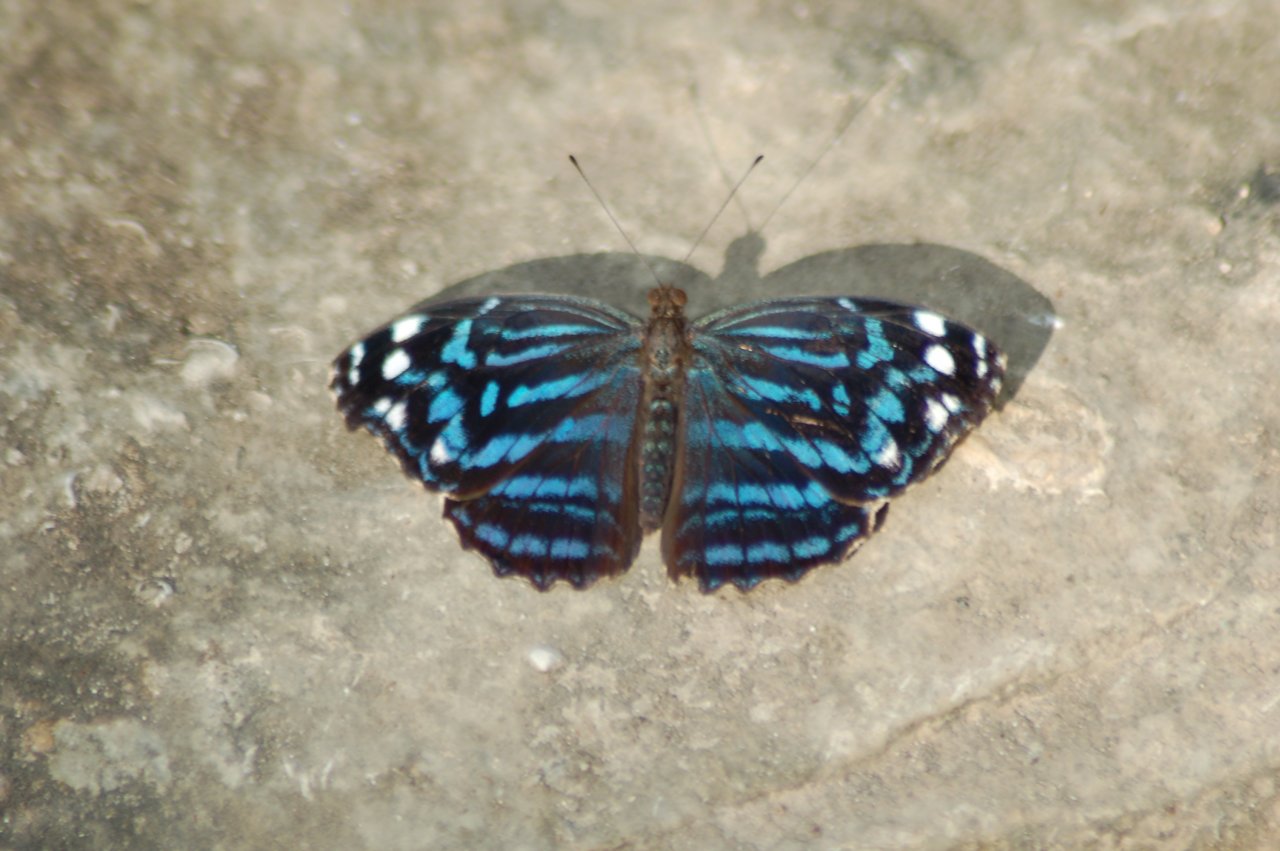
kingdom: Animalia
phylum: Arthropoda
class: Insecta
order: Lepidoptera
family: Nymphalidae
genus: Myscelia
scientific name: Myscelia ethusa
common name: Mexican Bluewing
